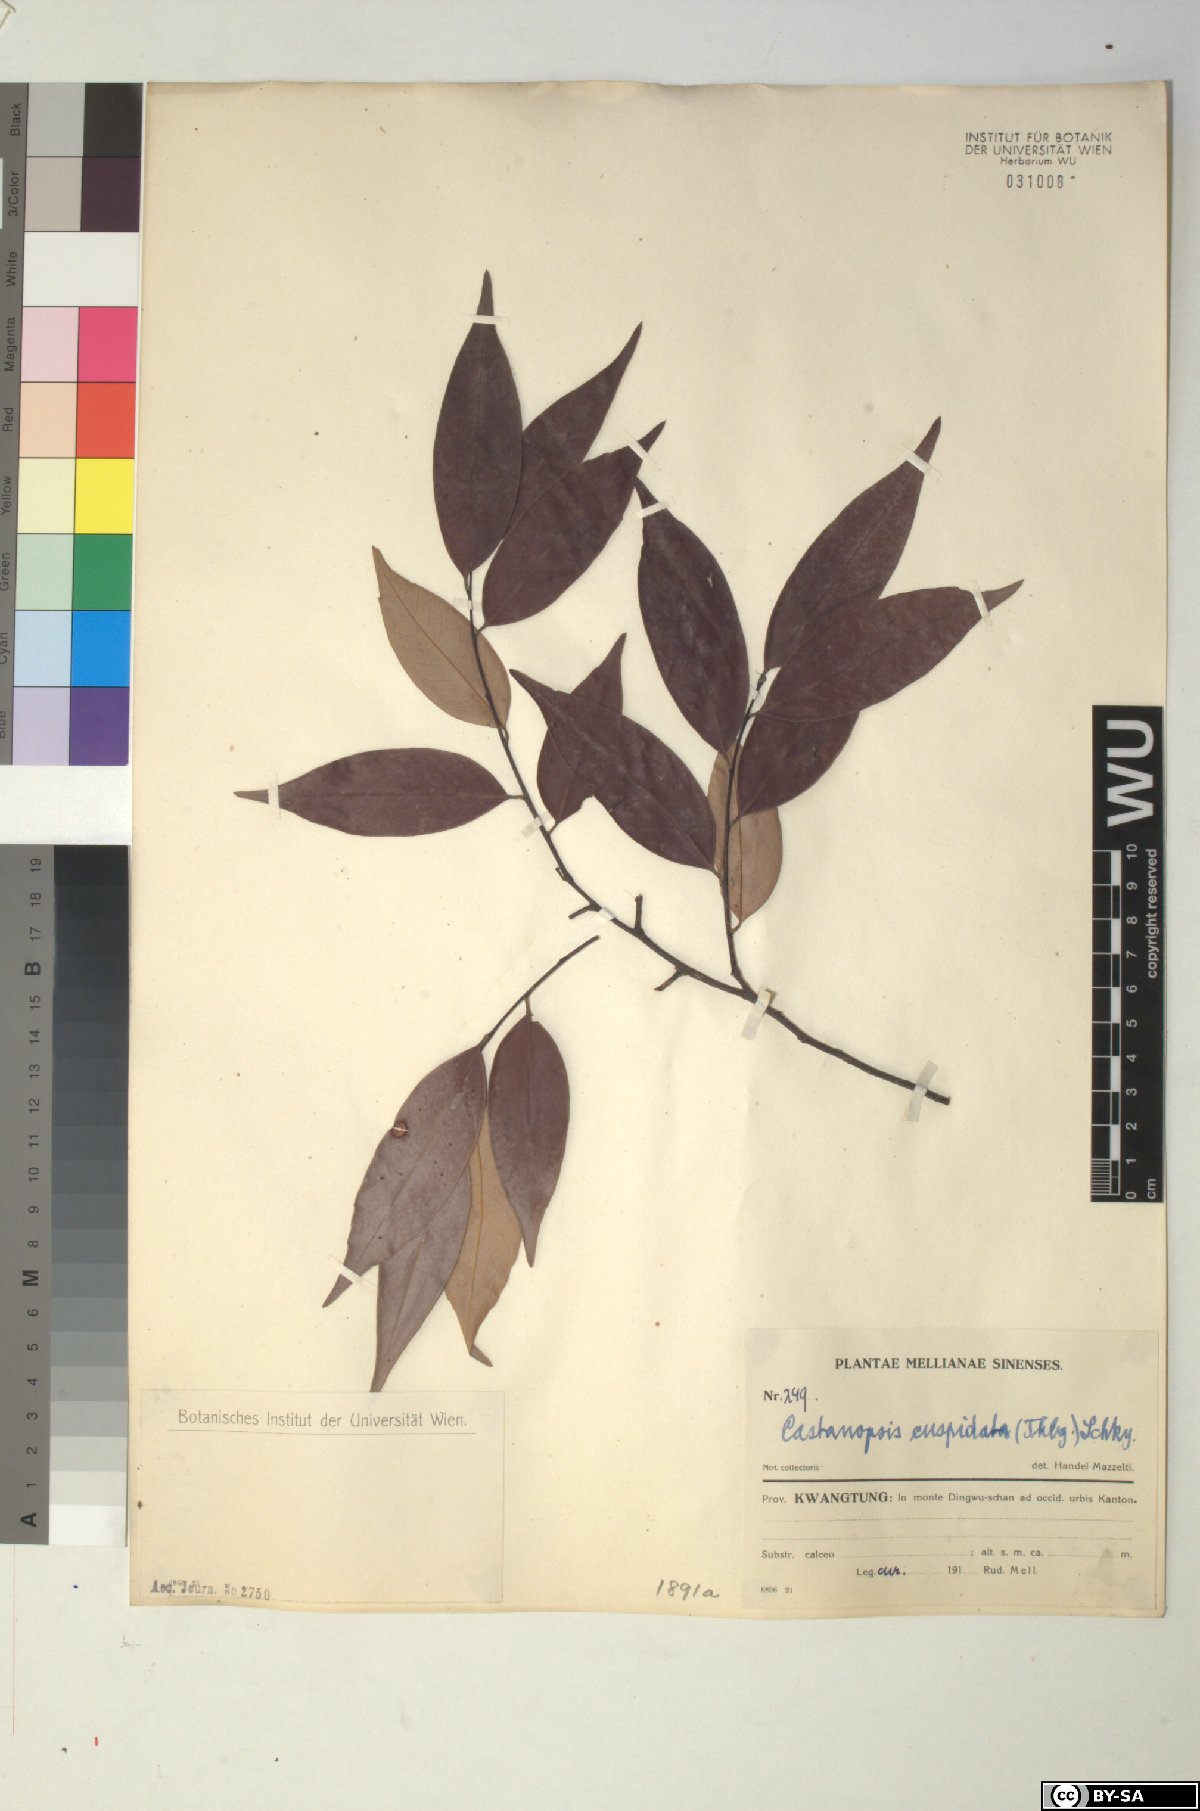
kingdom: Plantae
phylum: Tracheophyta
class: Magnoliopsida
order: Fagales
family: Fagaceae
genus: Castanopsis
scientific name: Castanopsis cuspidata
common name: Japanese chinquapin
